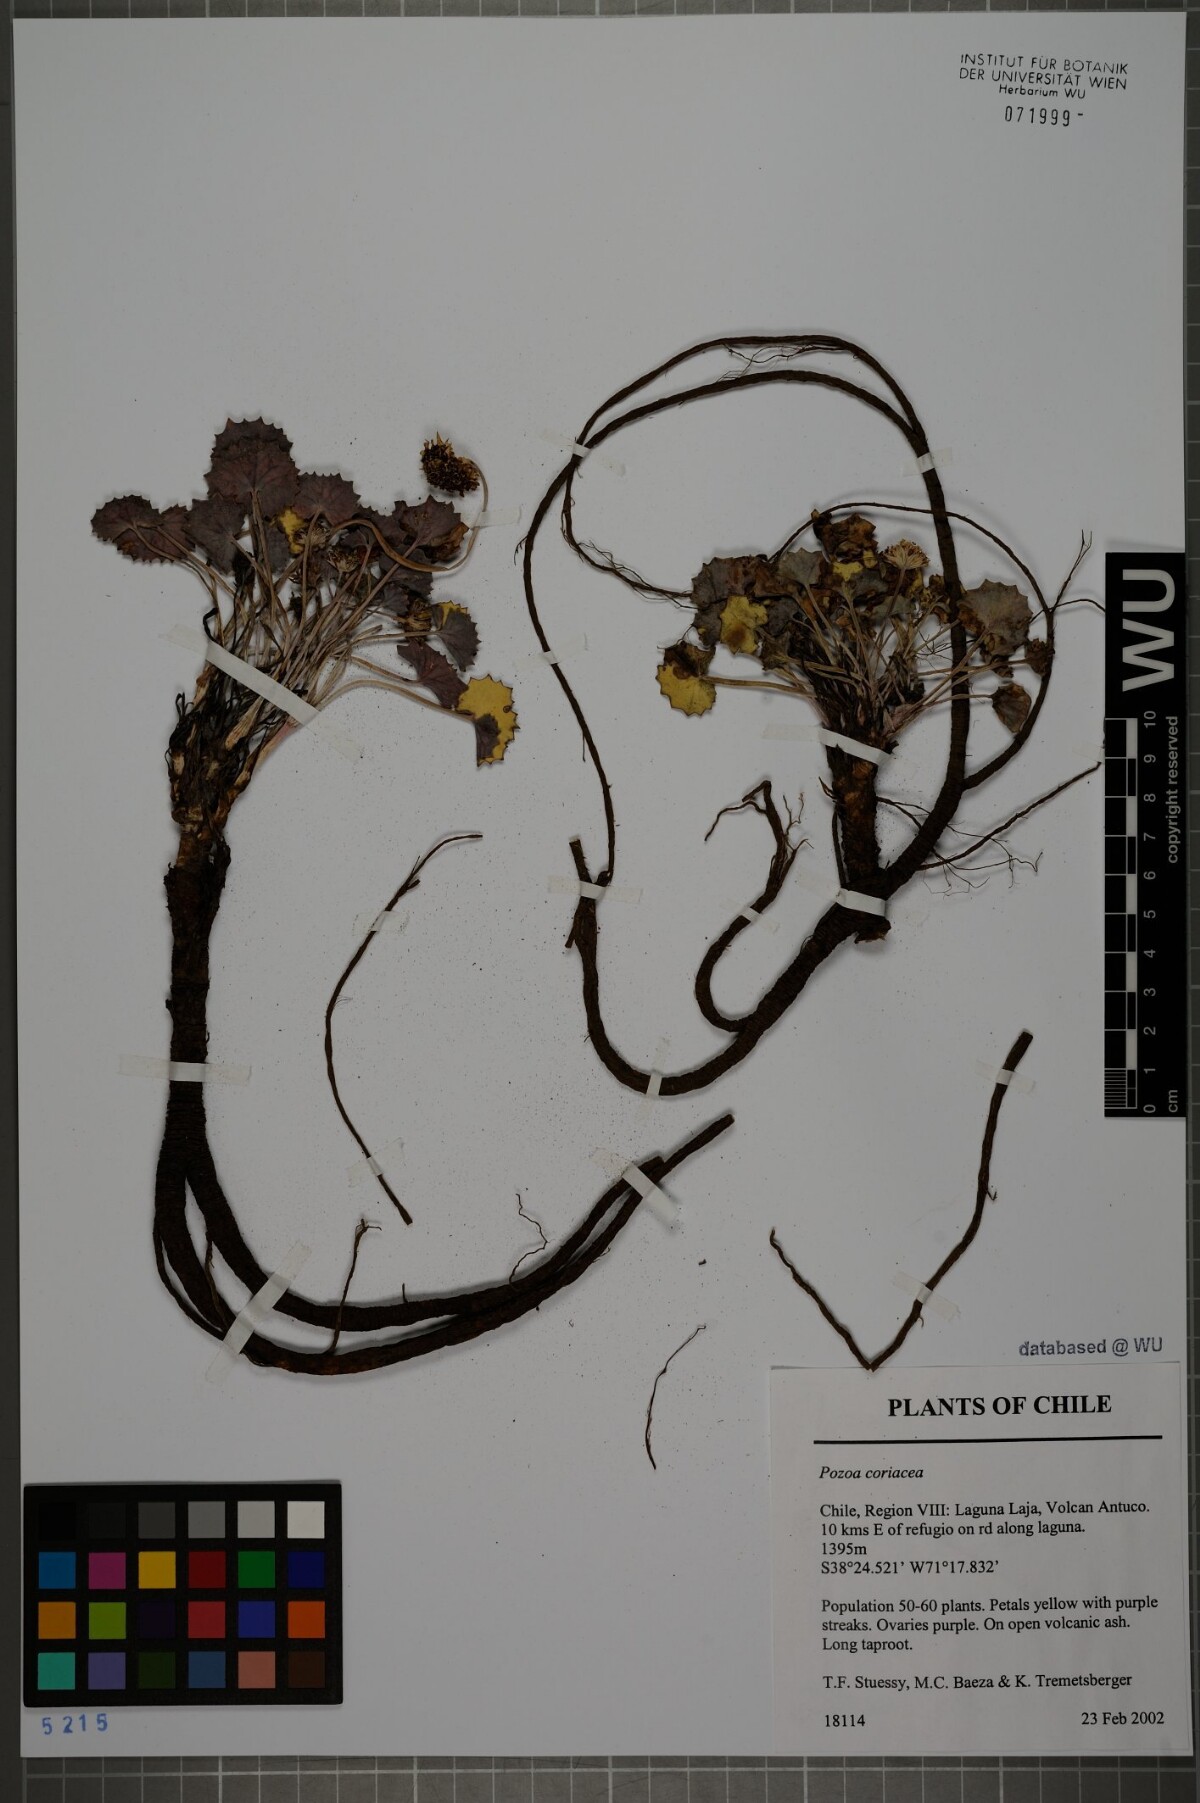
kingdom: Plantae
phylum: Tracheophyta
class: Magnoliopsida
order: Apiales
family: Apiaceae
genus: Pozoa
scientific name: Pozoa coriacea
